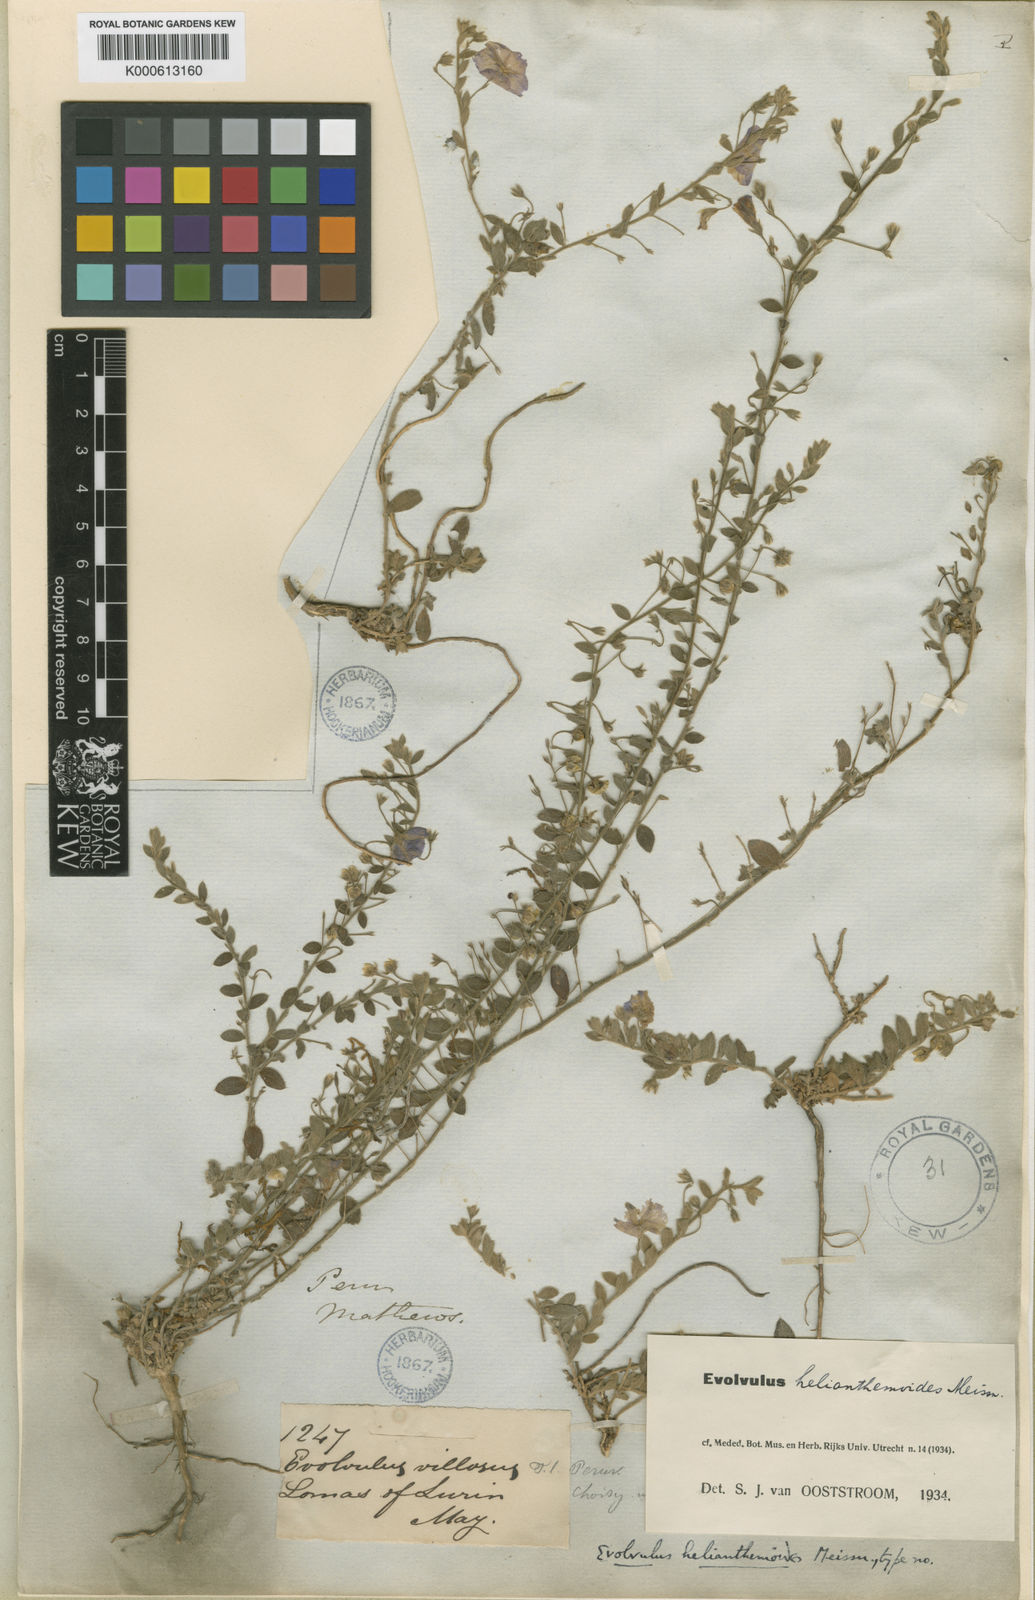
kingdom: Plantae
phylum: Tracheophyta
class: Magnoliopsida
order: Solanales
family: Convolvulaceae
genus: Evolvulus
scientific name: Evolvulus villosus
